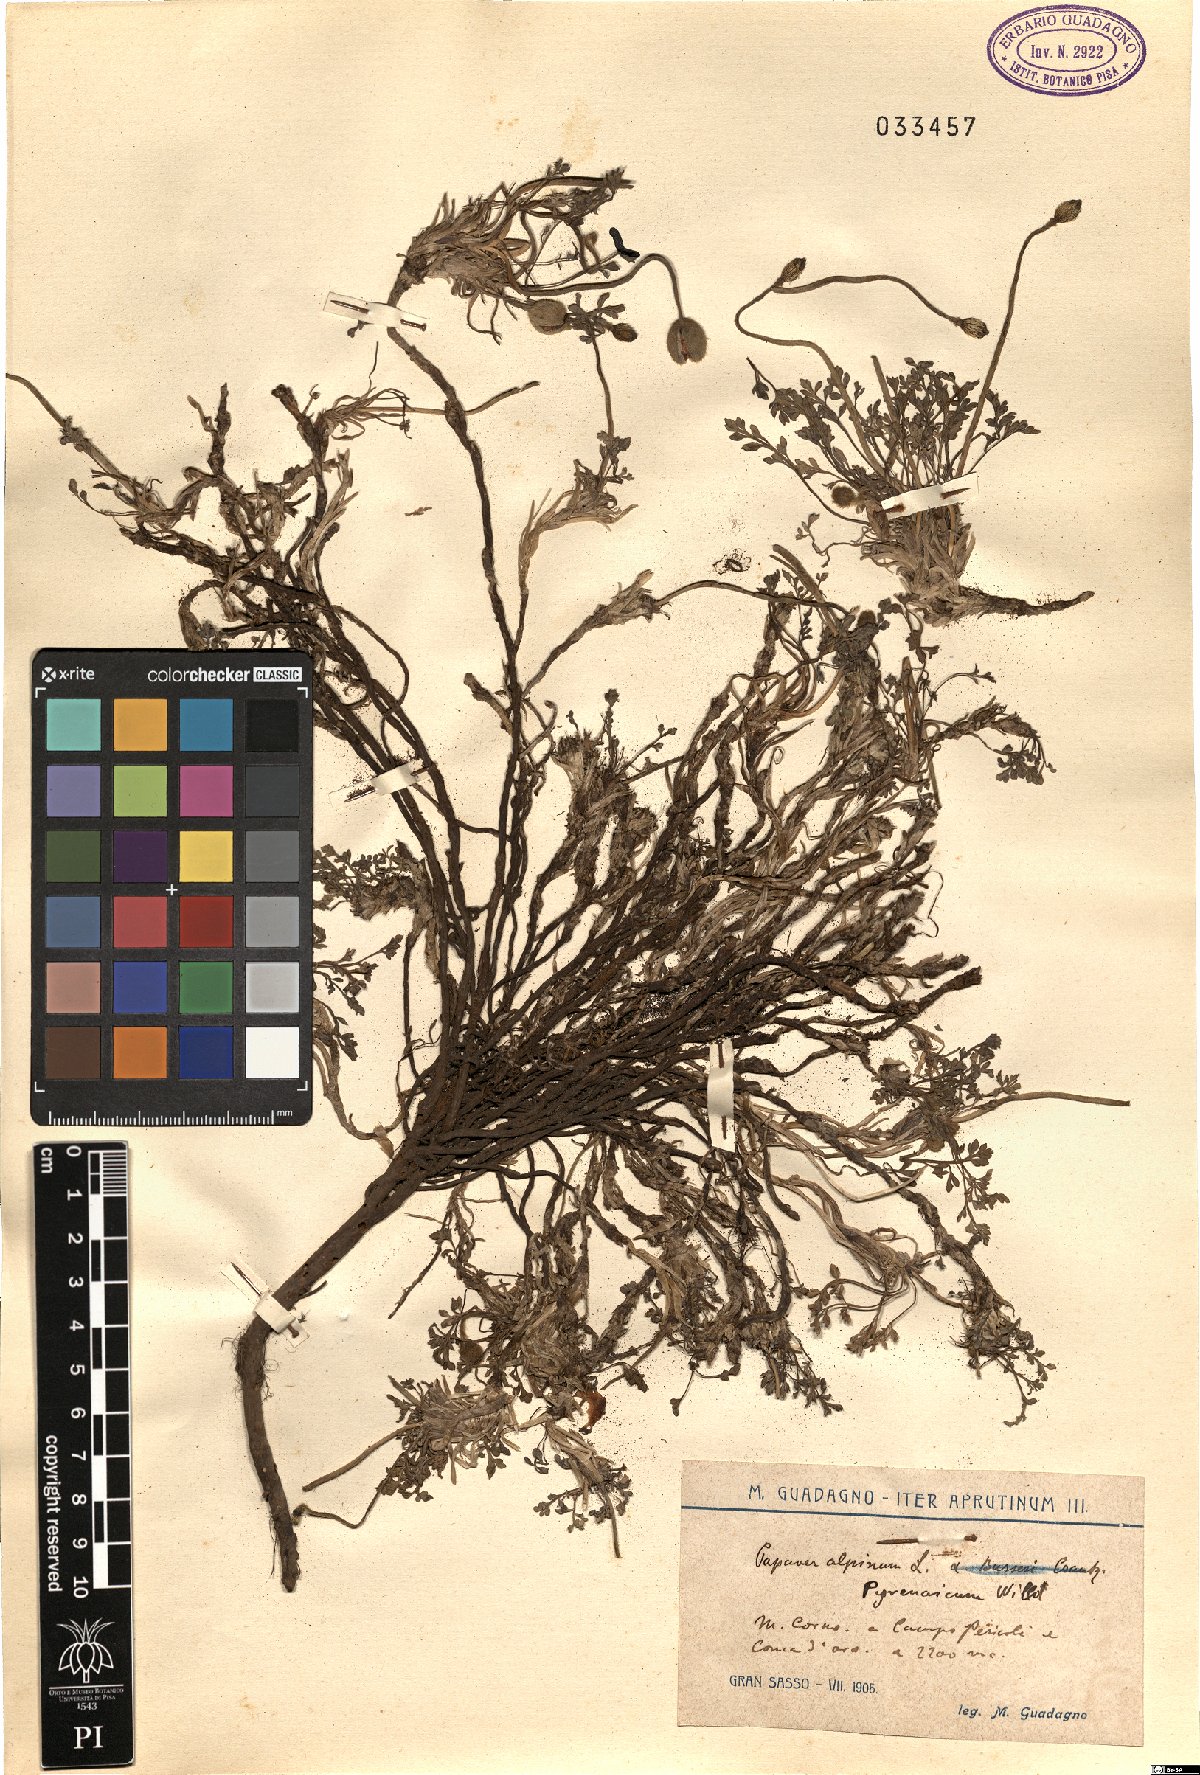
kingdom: Plantae
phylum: Tracheophyta
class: Magnoliopsida
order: Ranunculales
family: Papaveraceae
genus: Papaver
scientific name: Papaver alpinum
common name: Austrian poppy
